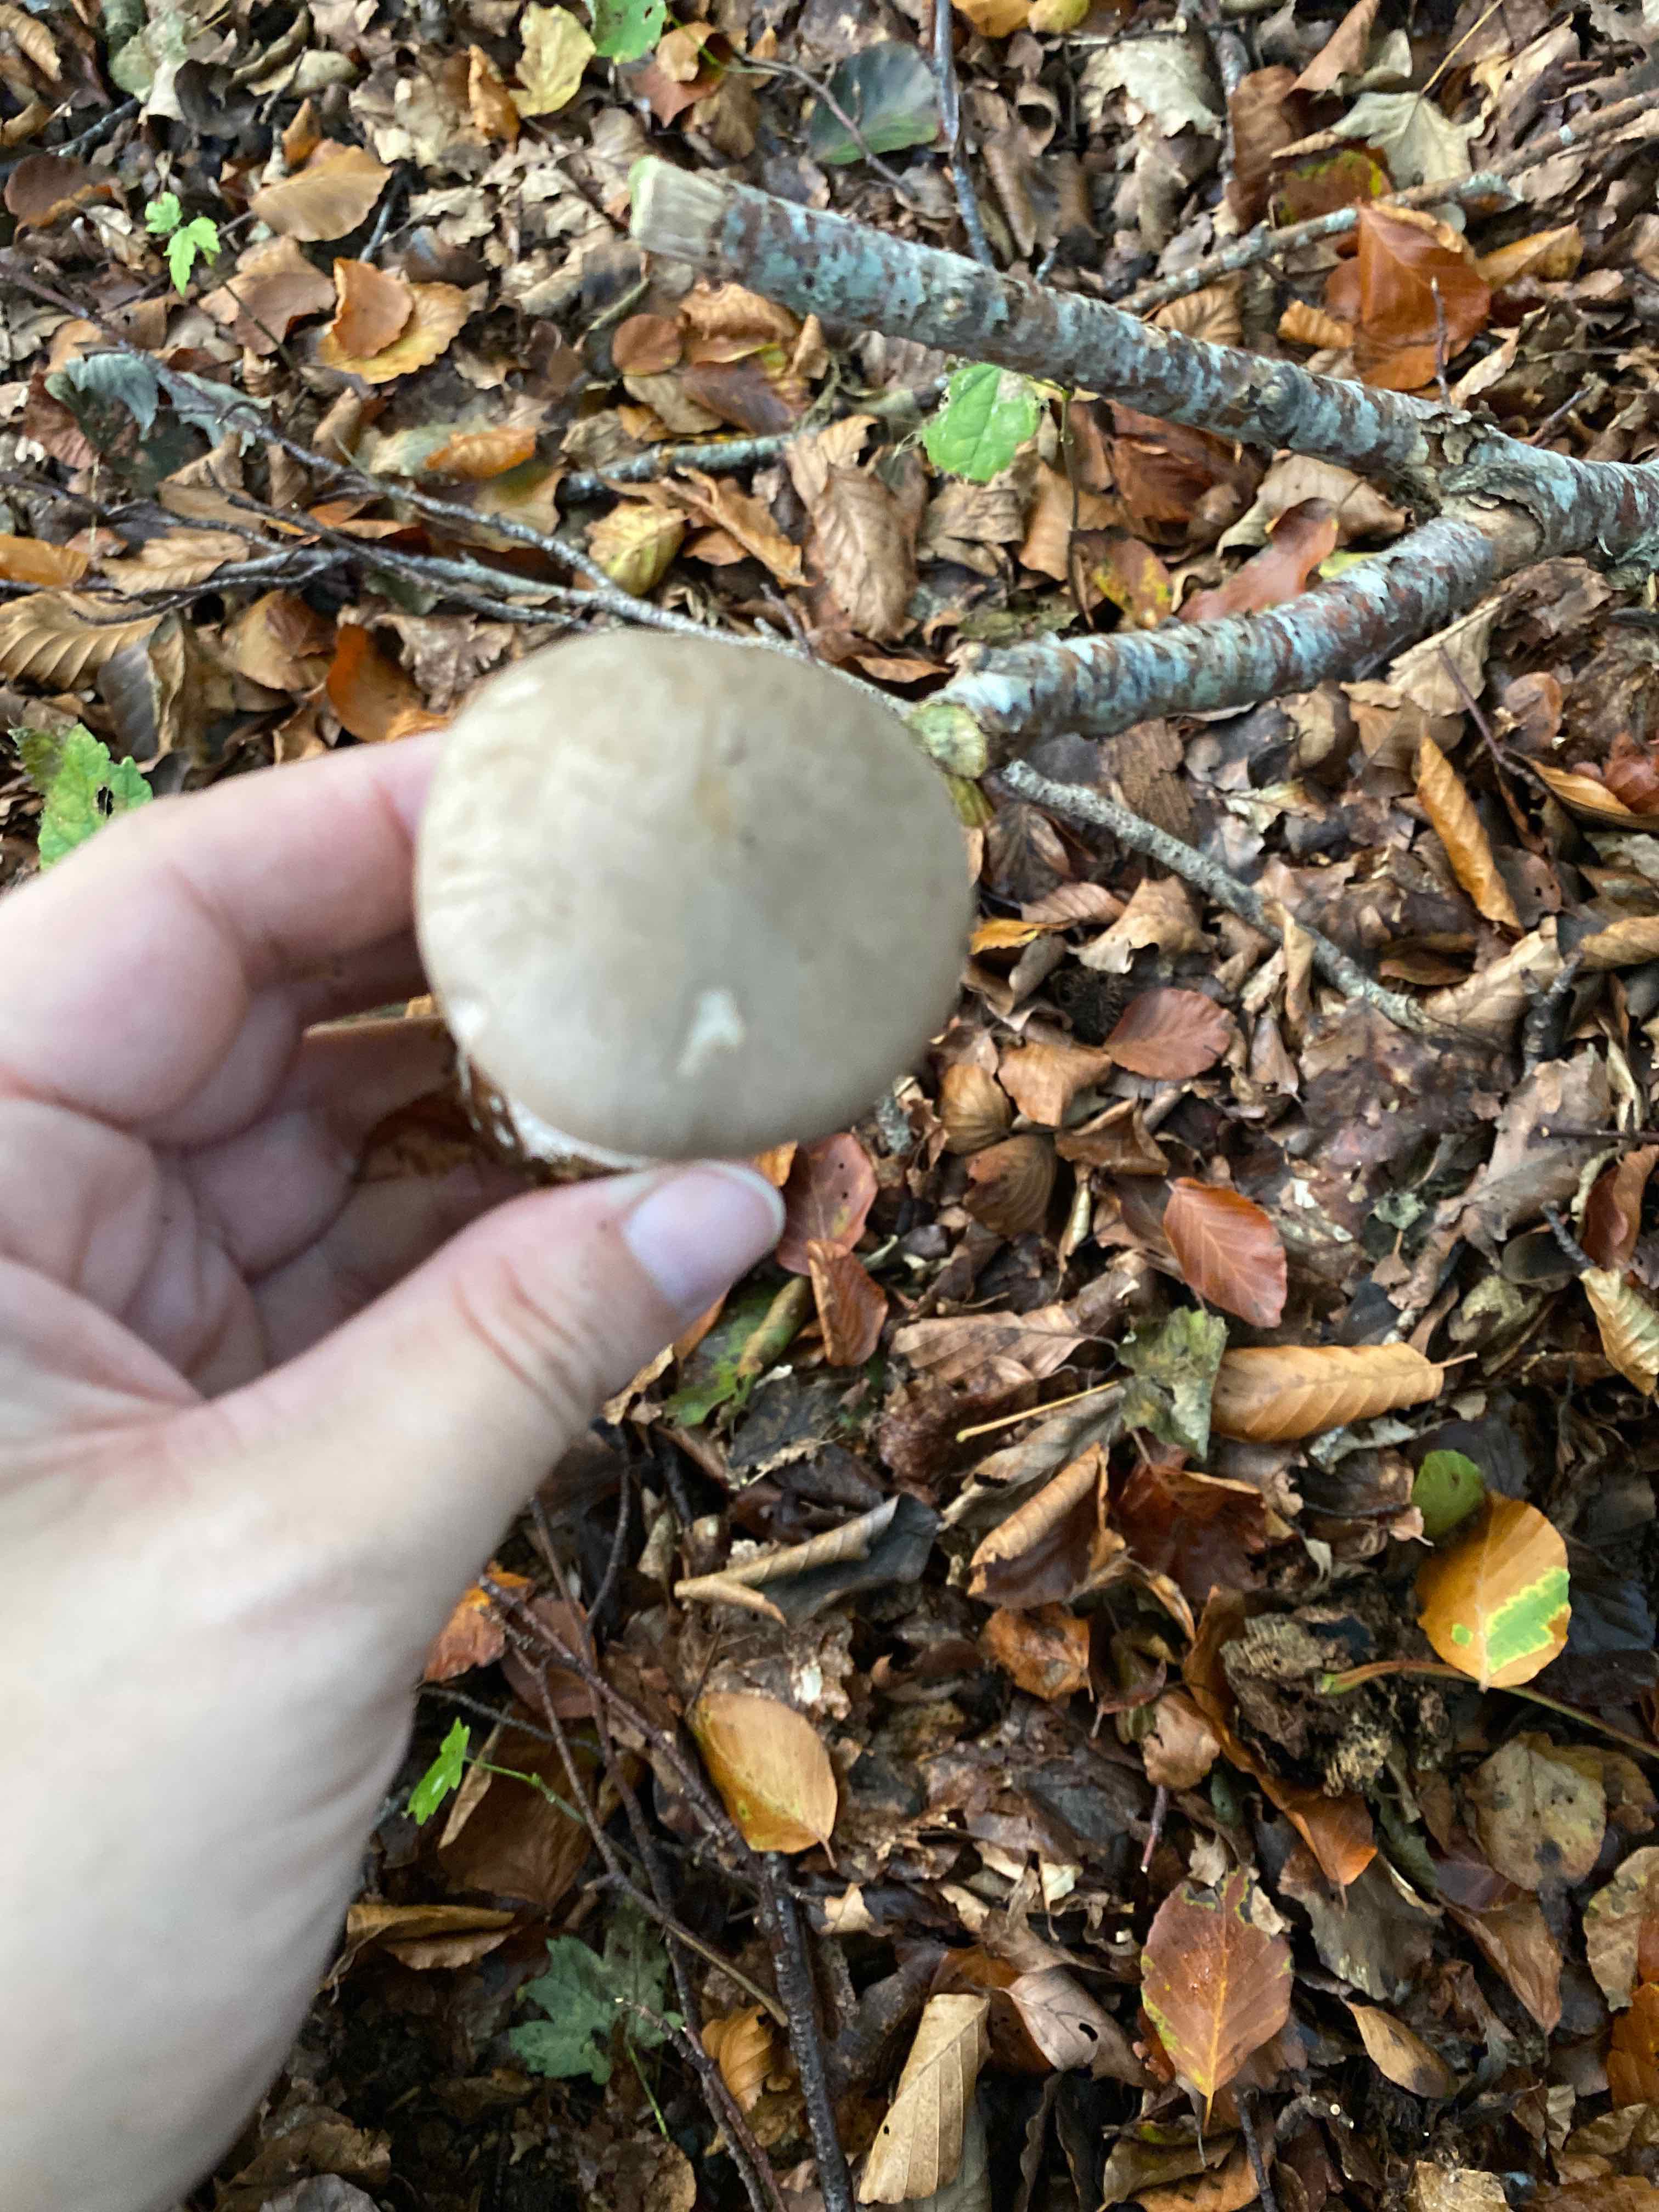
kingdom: Fungi
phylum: Basidiomycota
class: Agaricomycetes
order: Agaricales
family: Tricholomataceae
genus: Clitocybe
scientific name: Clitocybe nebularis
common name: tåge-tragthat
